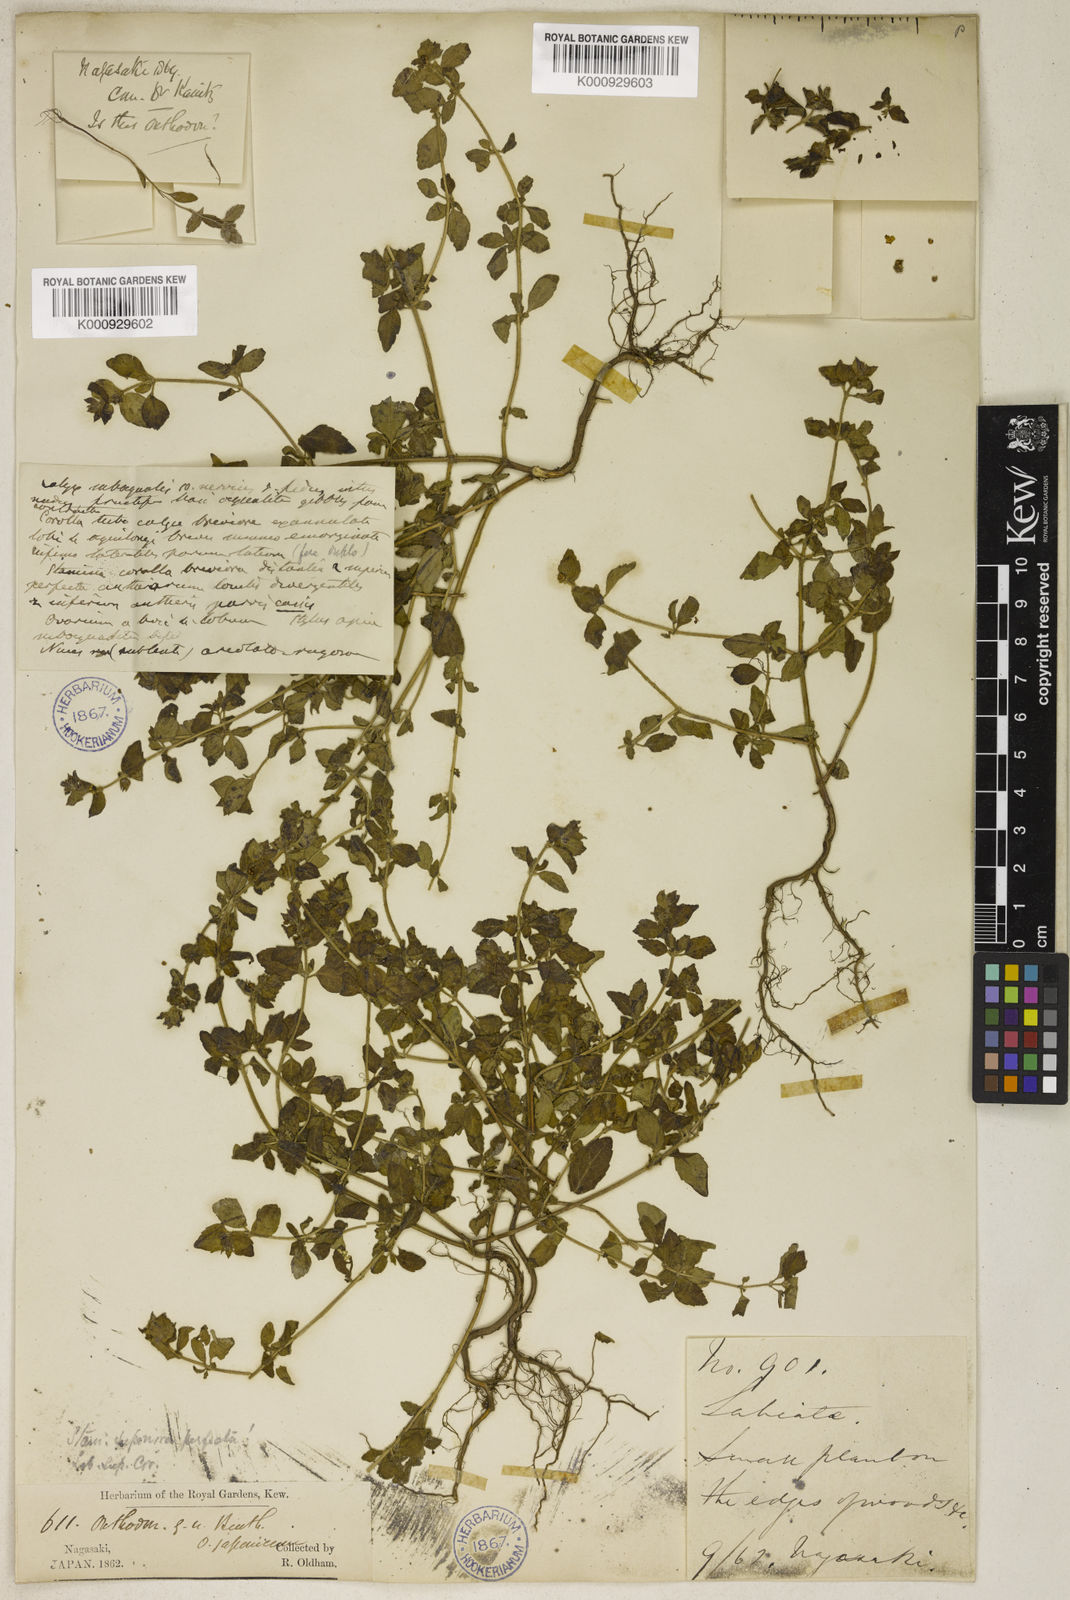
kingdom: Plantae
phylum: Tracheophyta
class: Magnoliopsida
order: Lamiales
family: Lamiaceae
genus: Mosla
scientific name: Mosla japonica
